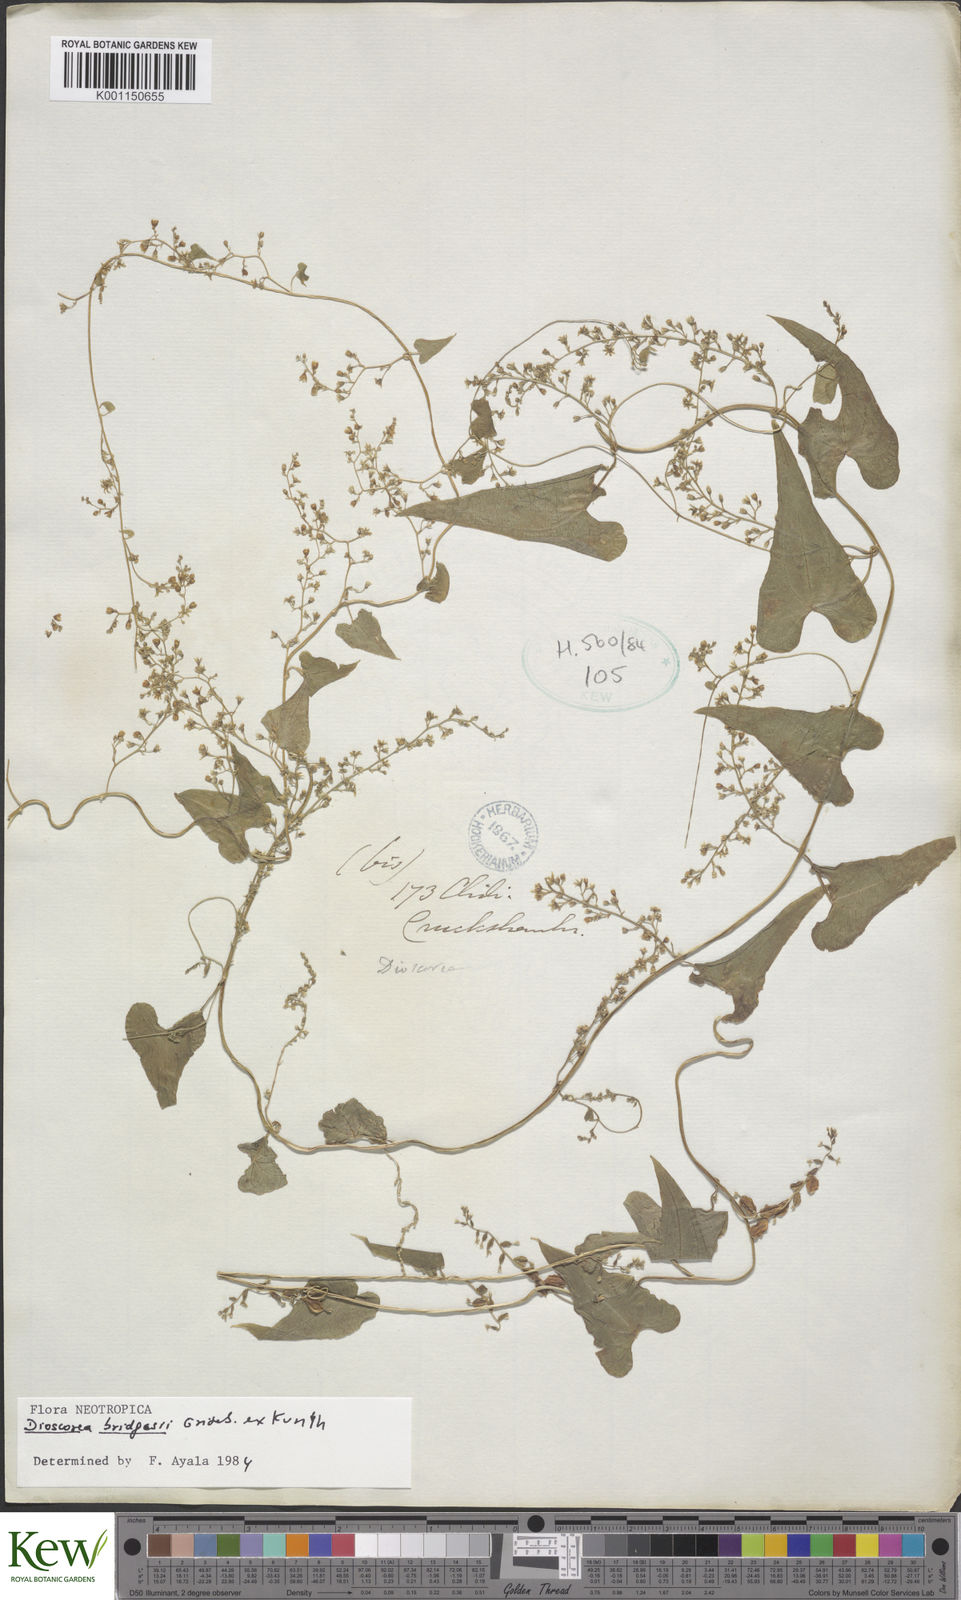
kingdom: Plantae
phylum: Tracheophyta
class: Liliopsida
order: Dioscoreales
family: Dioscoreaceae
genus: Dioscorea
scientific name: Dioscorea bridgesii
